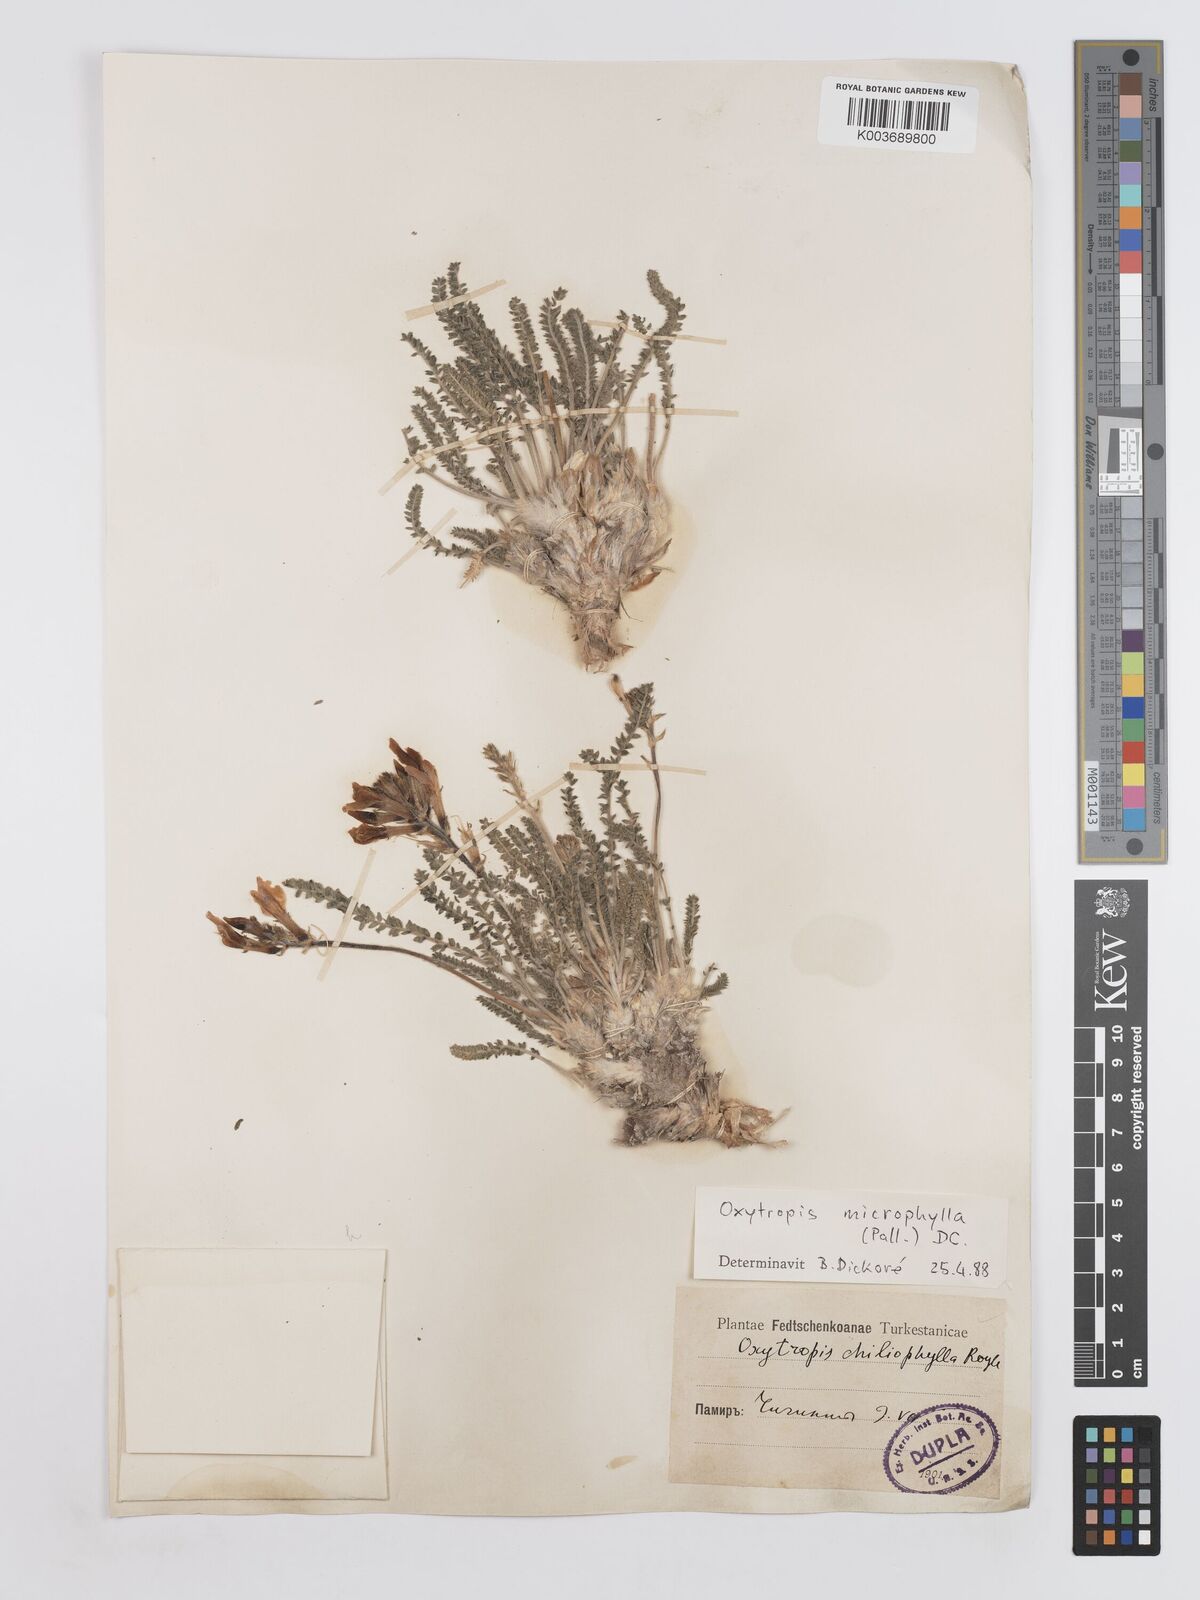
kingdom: Plantae
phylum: Tracheophyta
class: Magnoliopsida
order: Fabales
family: Fabaceae
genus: Oxytropis
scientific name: Oxytropis
